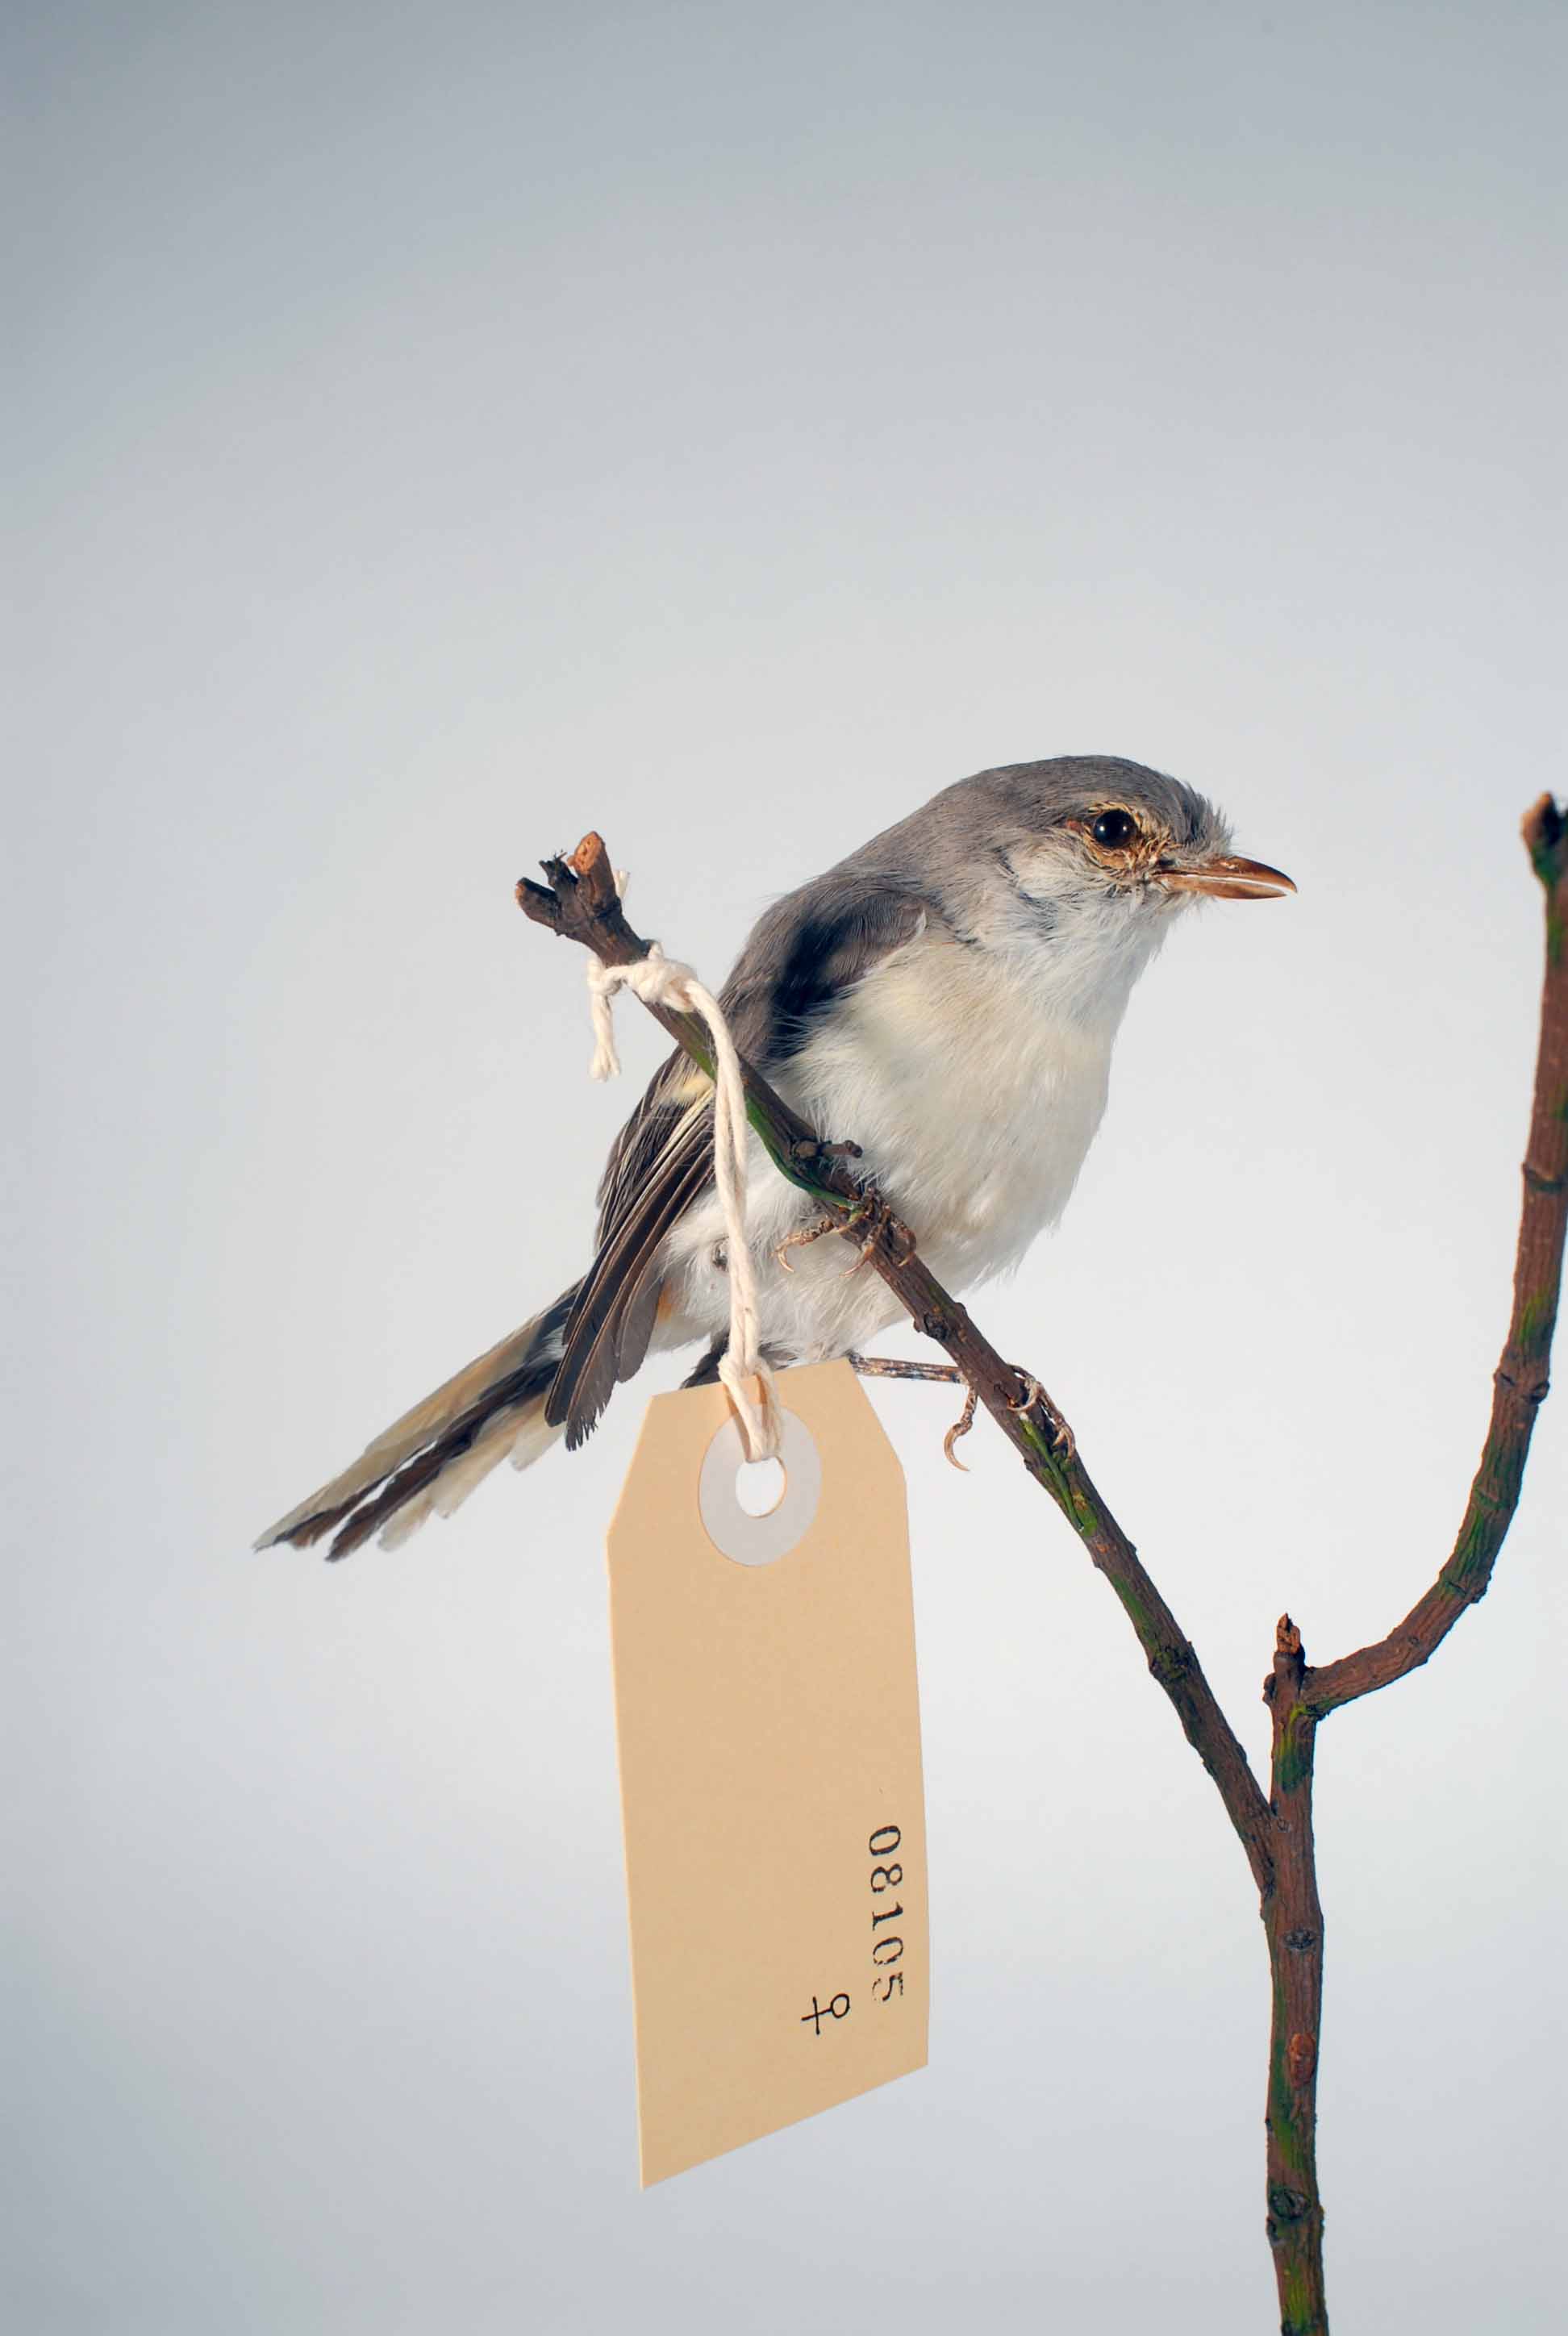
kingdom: Animalia
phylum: Chordata
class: Aves
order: Passeriformes
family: Campephagidae
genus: Pericrocotus
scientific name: Pericrocotus cinnamomeus
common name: Small minivet
